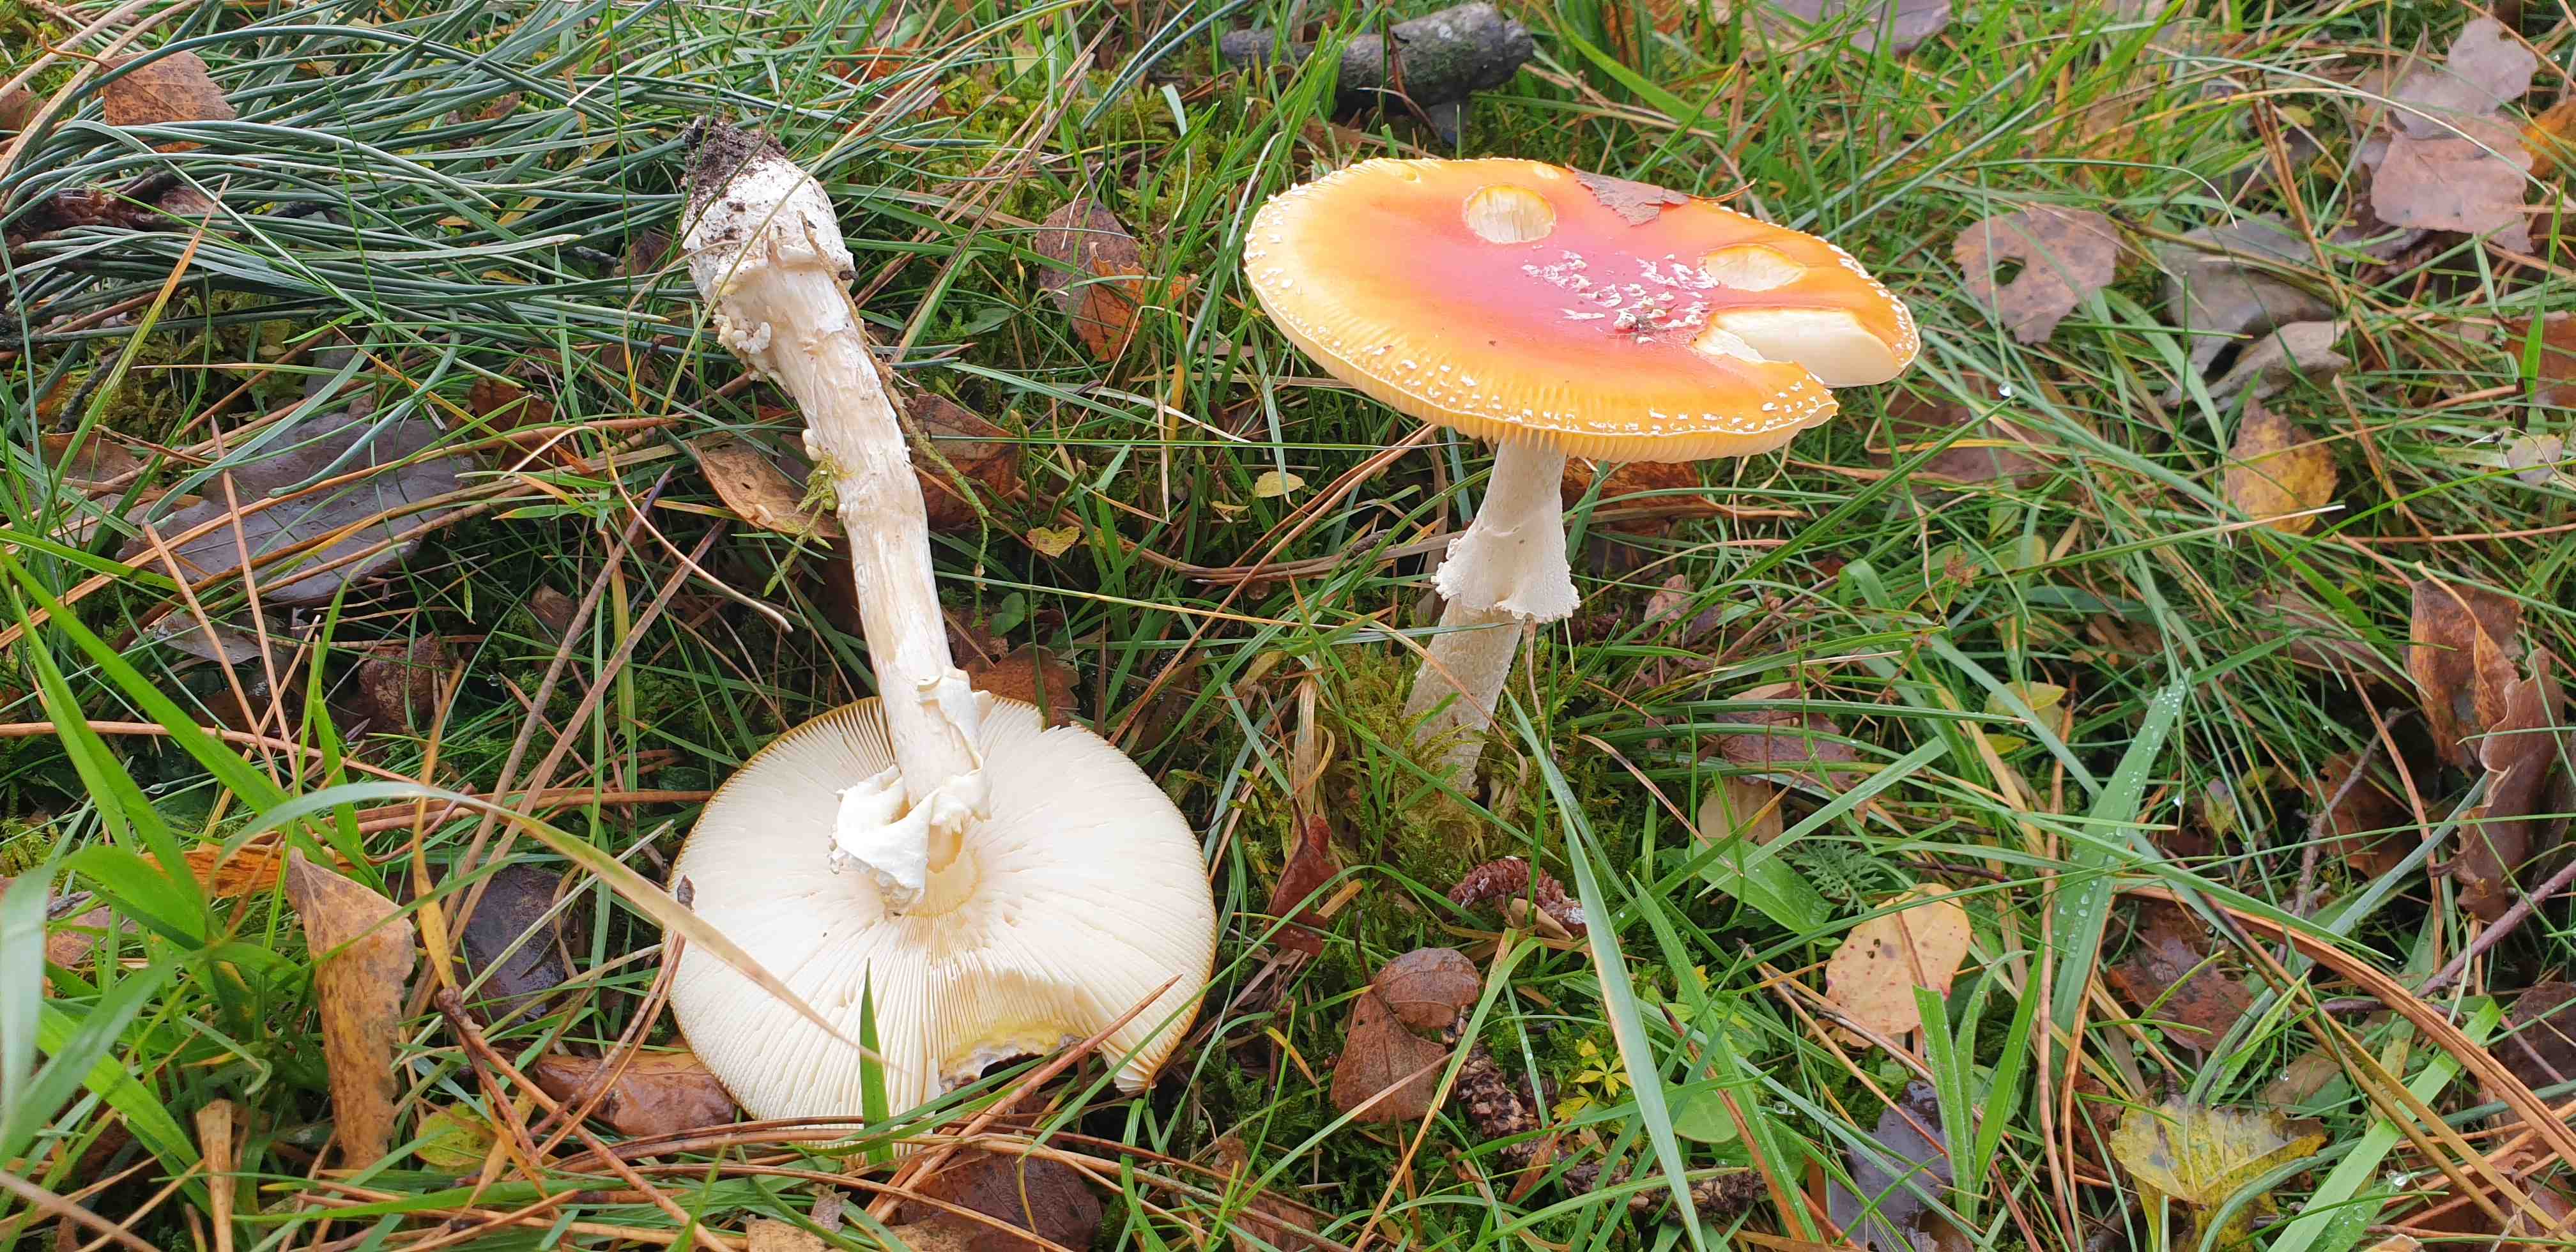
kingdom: Fungi
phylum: Basidiomycota
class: Agaricomycetes
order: Agaricales
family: Amanitaceae
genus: Amanita
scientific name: Amanita muscaria
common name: rød fluesvamp
